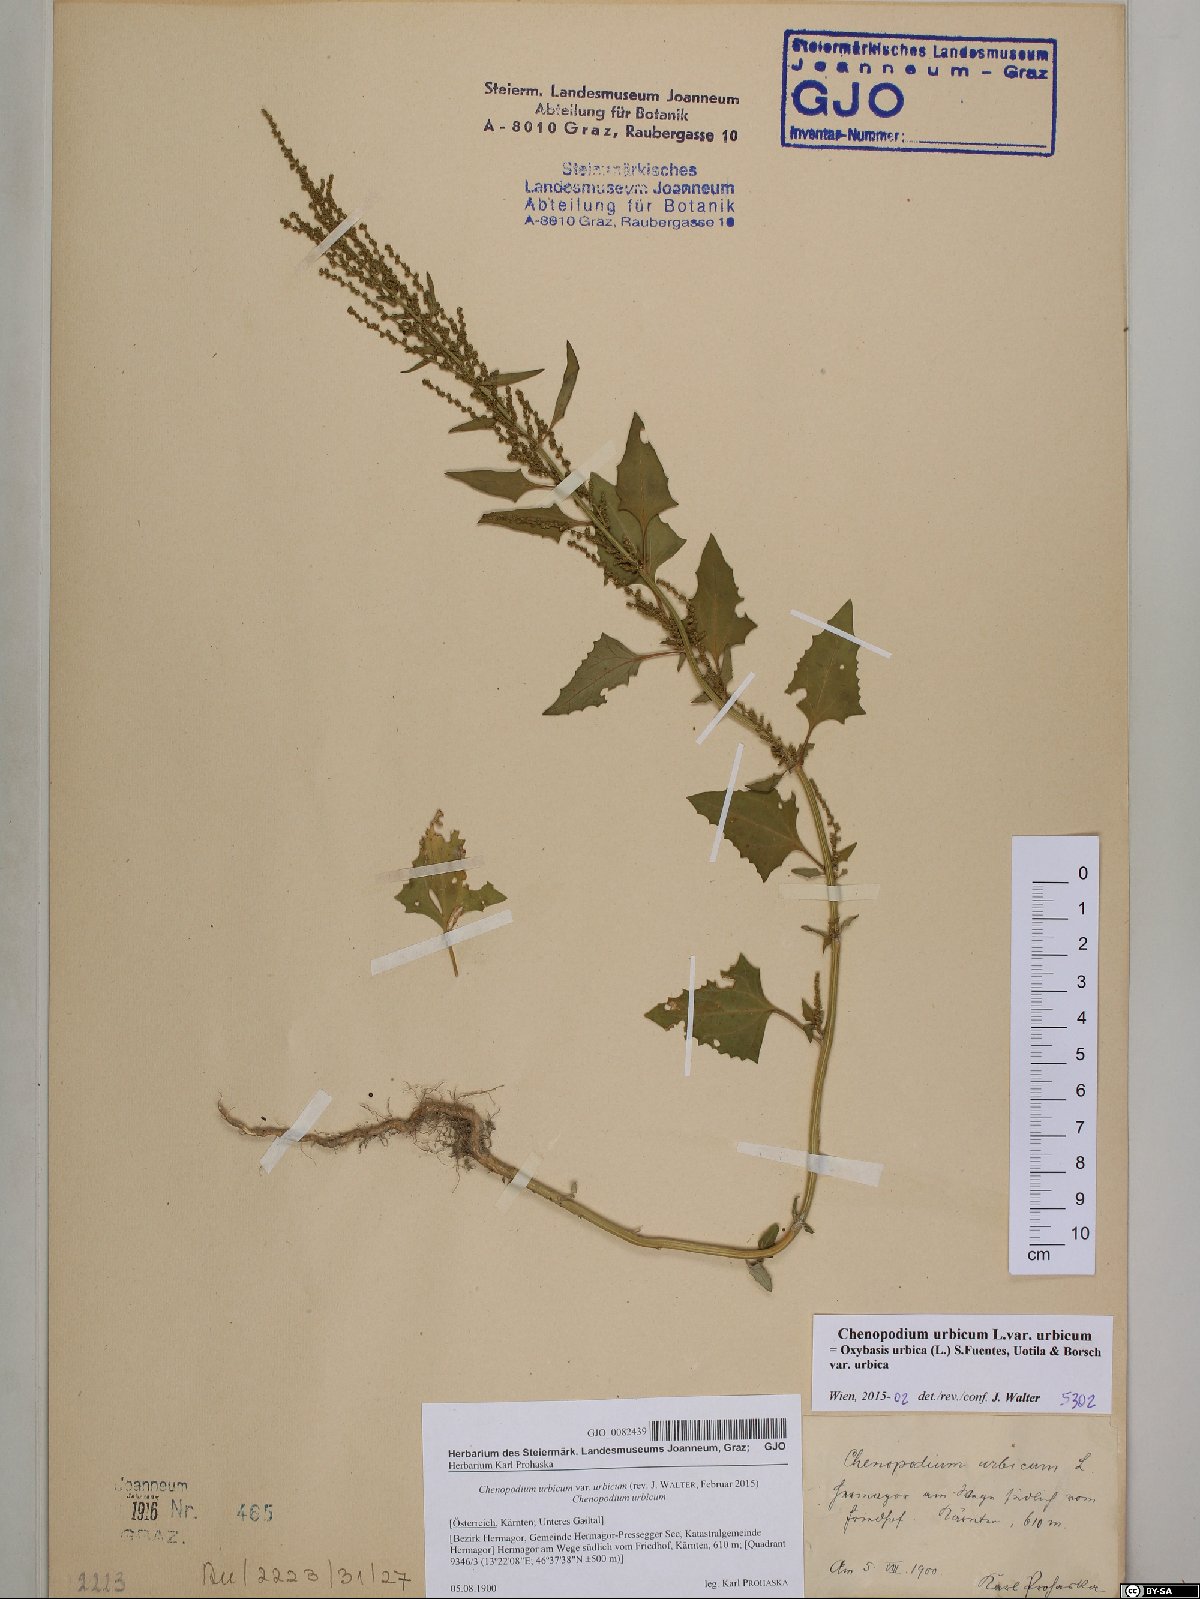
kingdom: Plantae
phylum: Tracheophyta
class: Magnoliopsida
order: Caryophyllales
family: Amaranthaceae
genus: Oxybasis
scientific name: Oxybasis urbica
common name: City goosefoot
